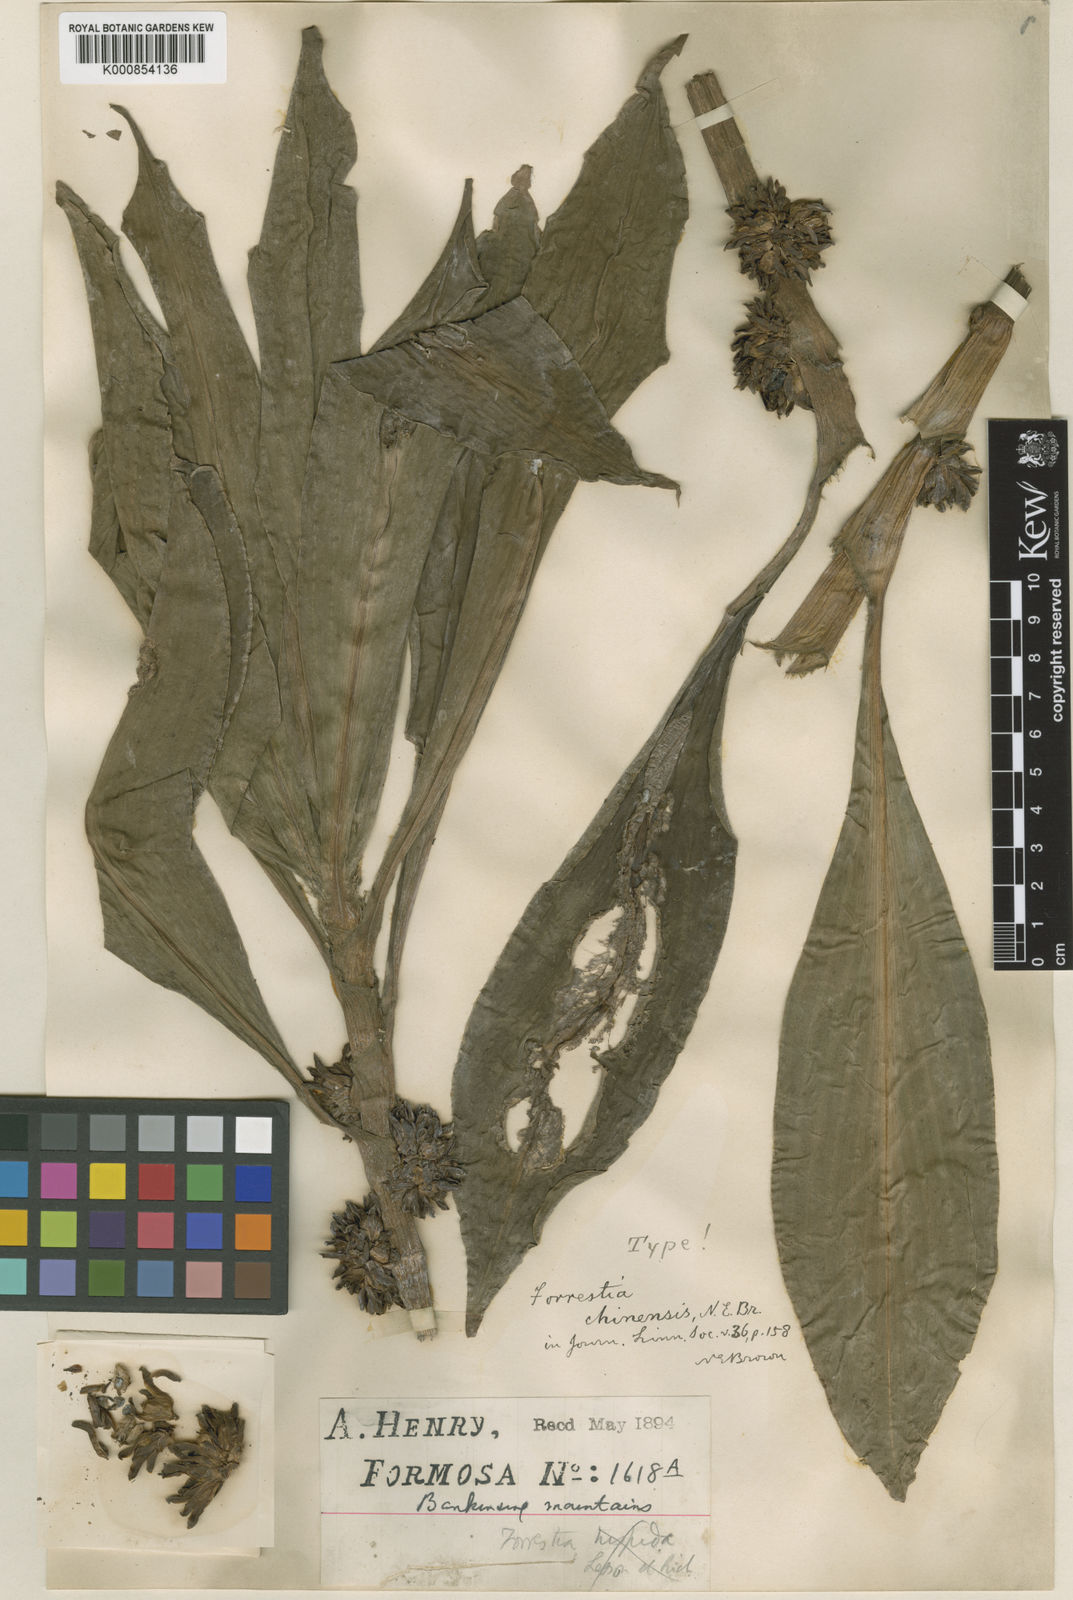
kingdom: Plantae
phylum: Tracheophyta
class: Liliopsida
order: Commelinales
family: Commelinaceae
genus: Amischotolype
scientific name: Amischotolype hispida
